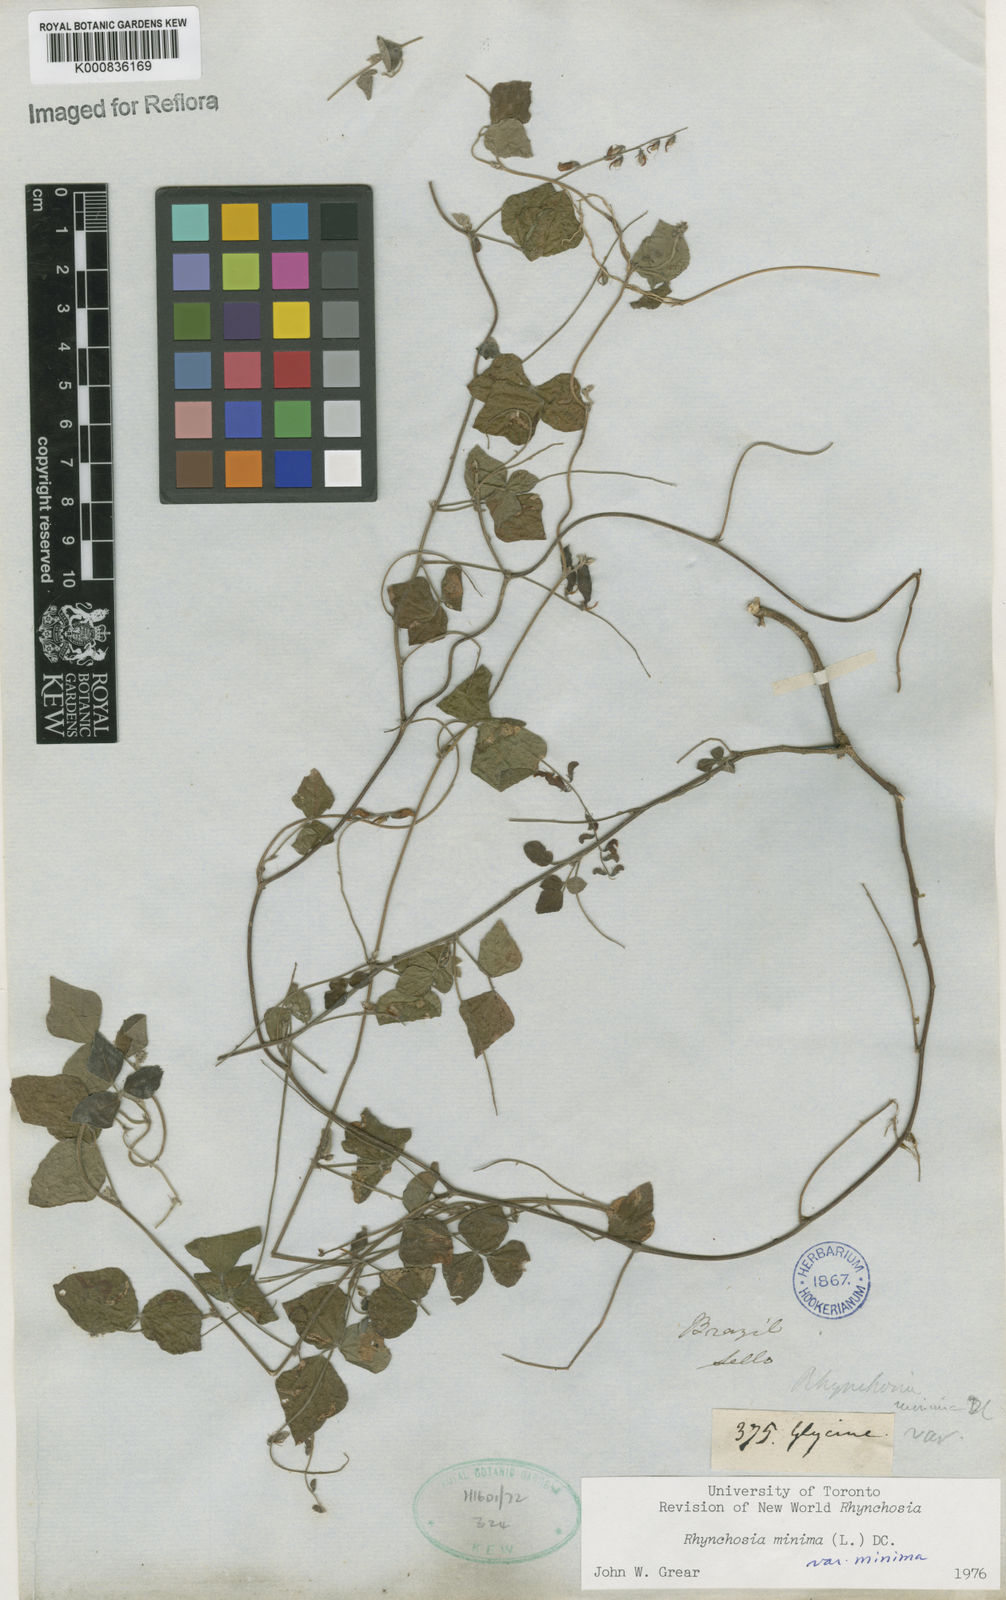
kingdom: Plantae
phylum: Tracheophyta
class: Magnoliopsida
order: Fabales
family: Fabaceae
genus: Rhynchosia
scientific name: Rhynchosia minima
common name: Least snoutbean
